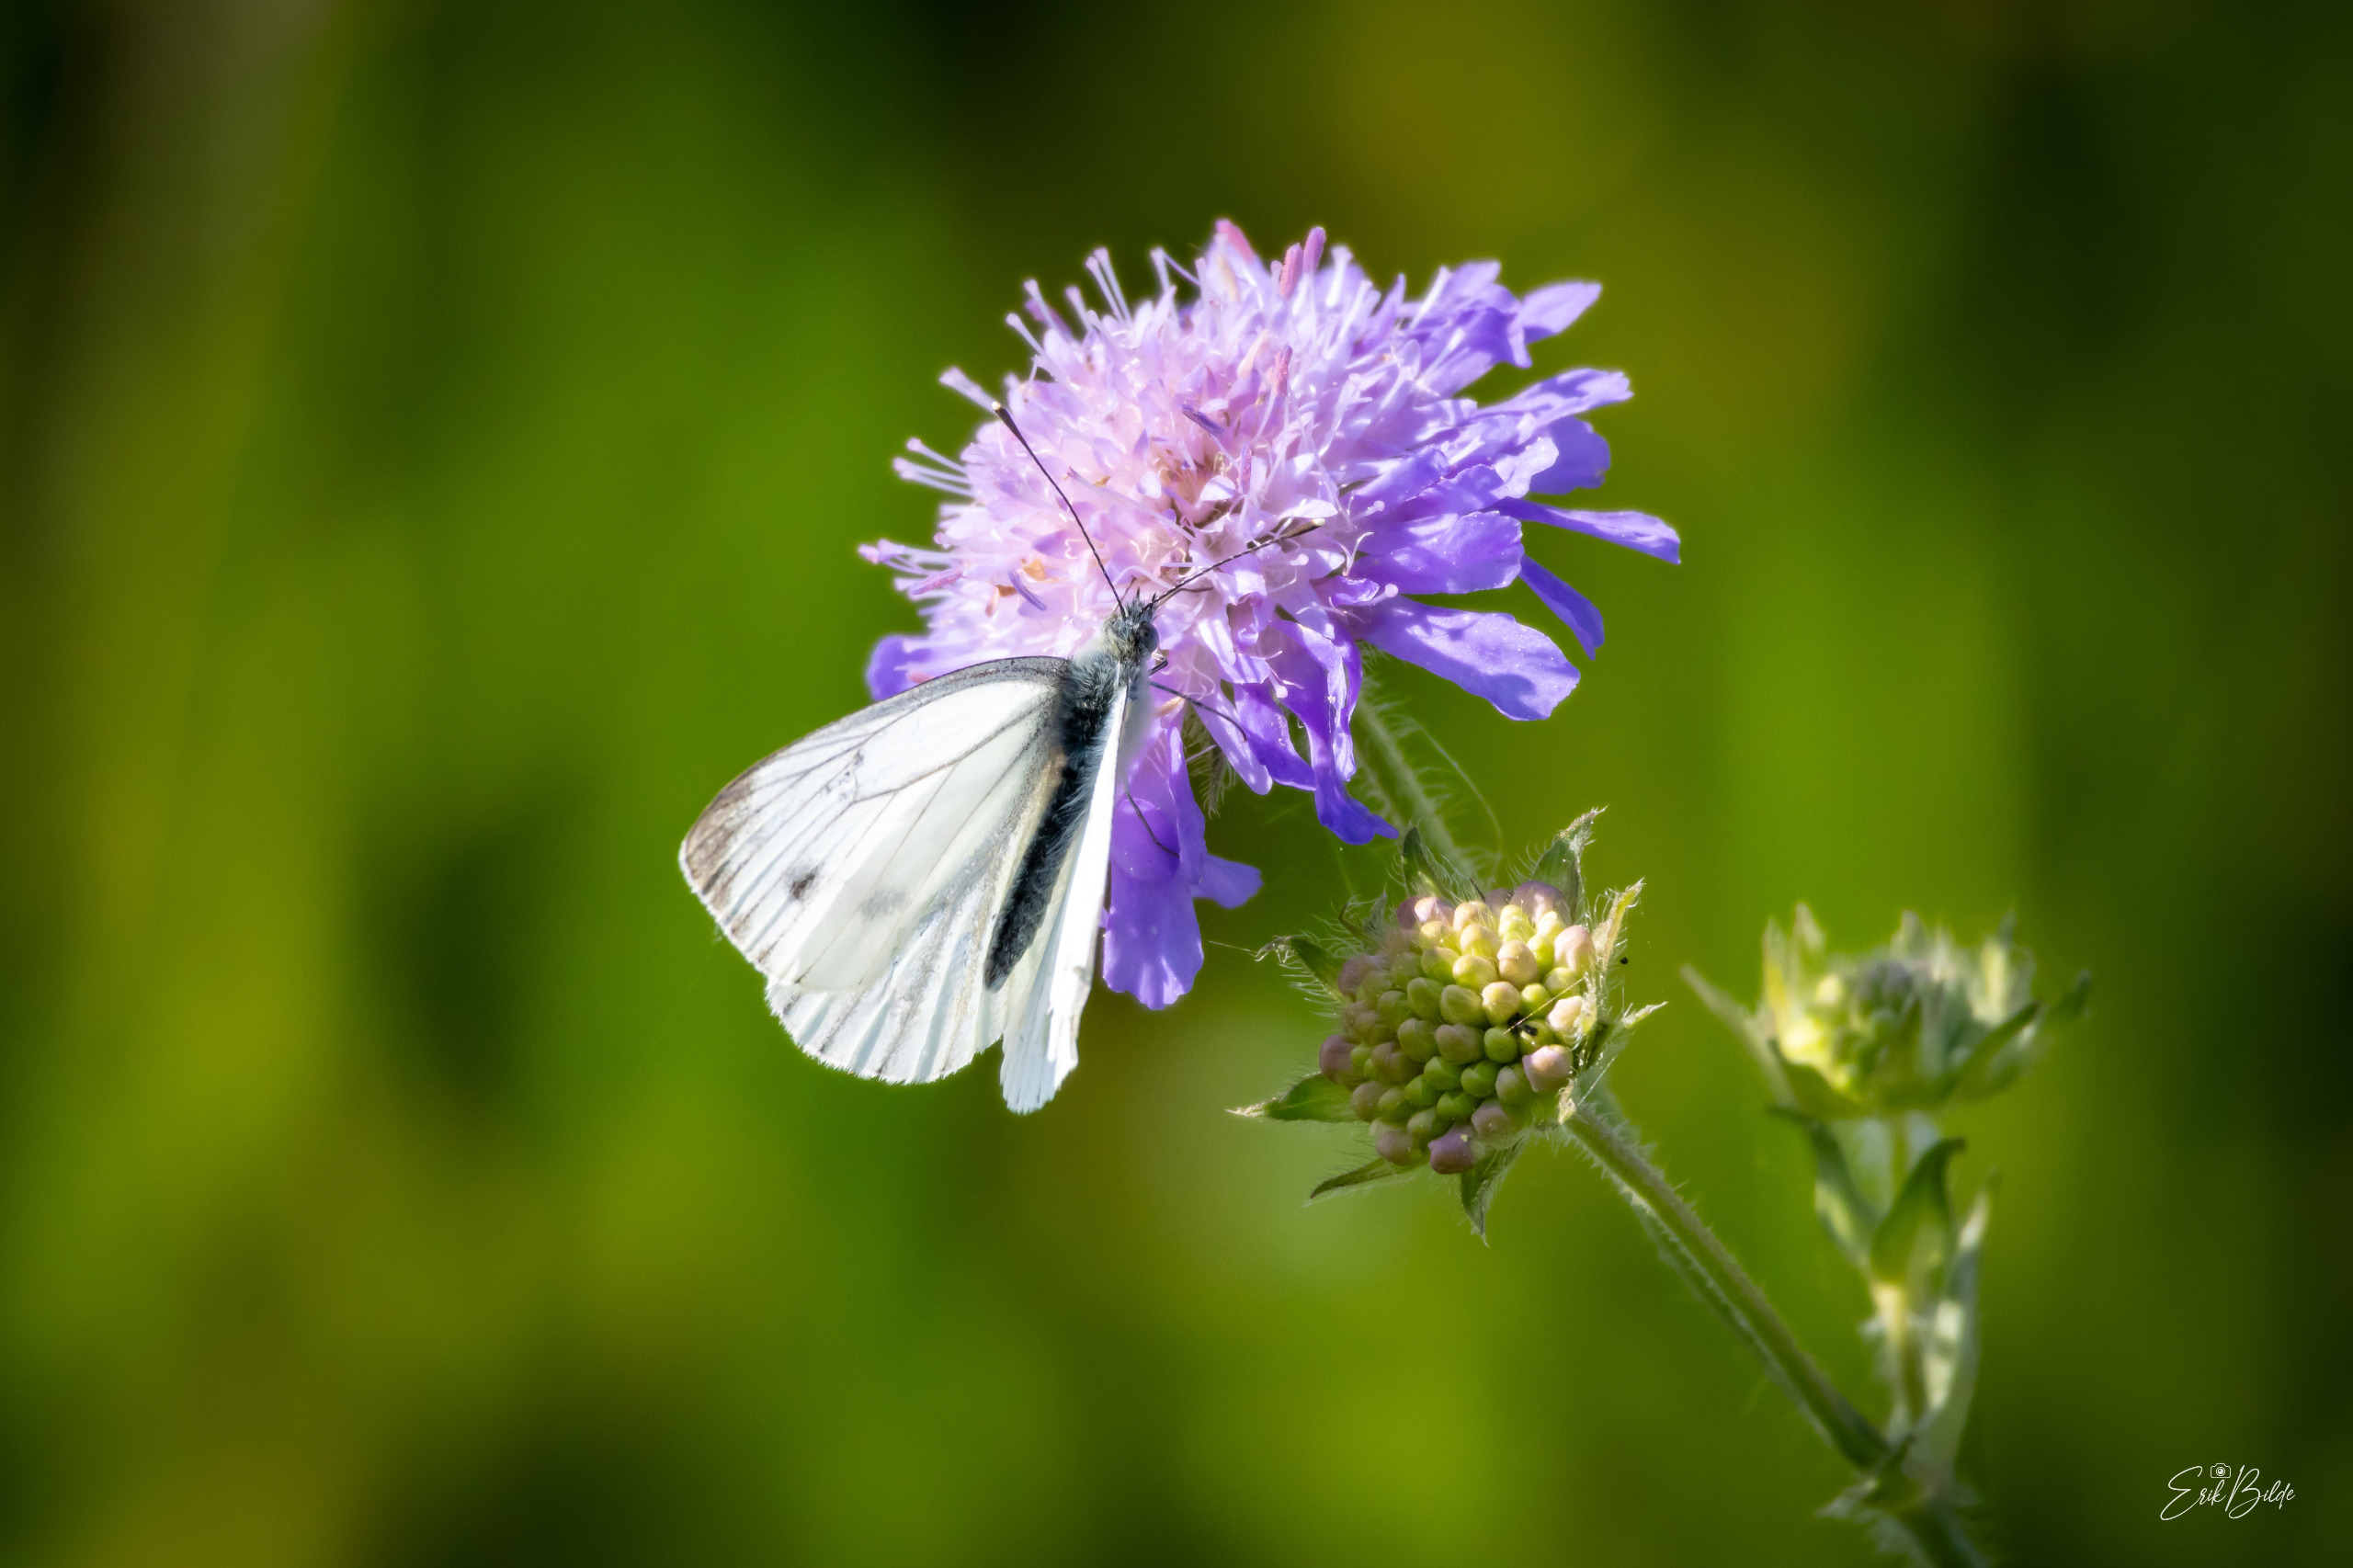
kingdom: Animalia
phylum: Arthropoda
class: Insecta
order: Lepidoptera
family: Pieridae
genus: Pieris
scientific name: Pieris napi
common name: Grønåret kålsommerfugl
